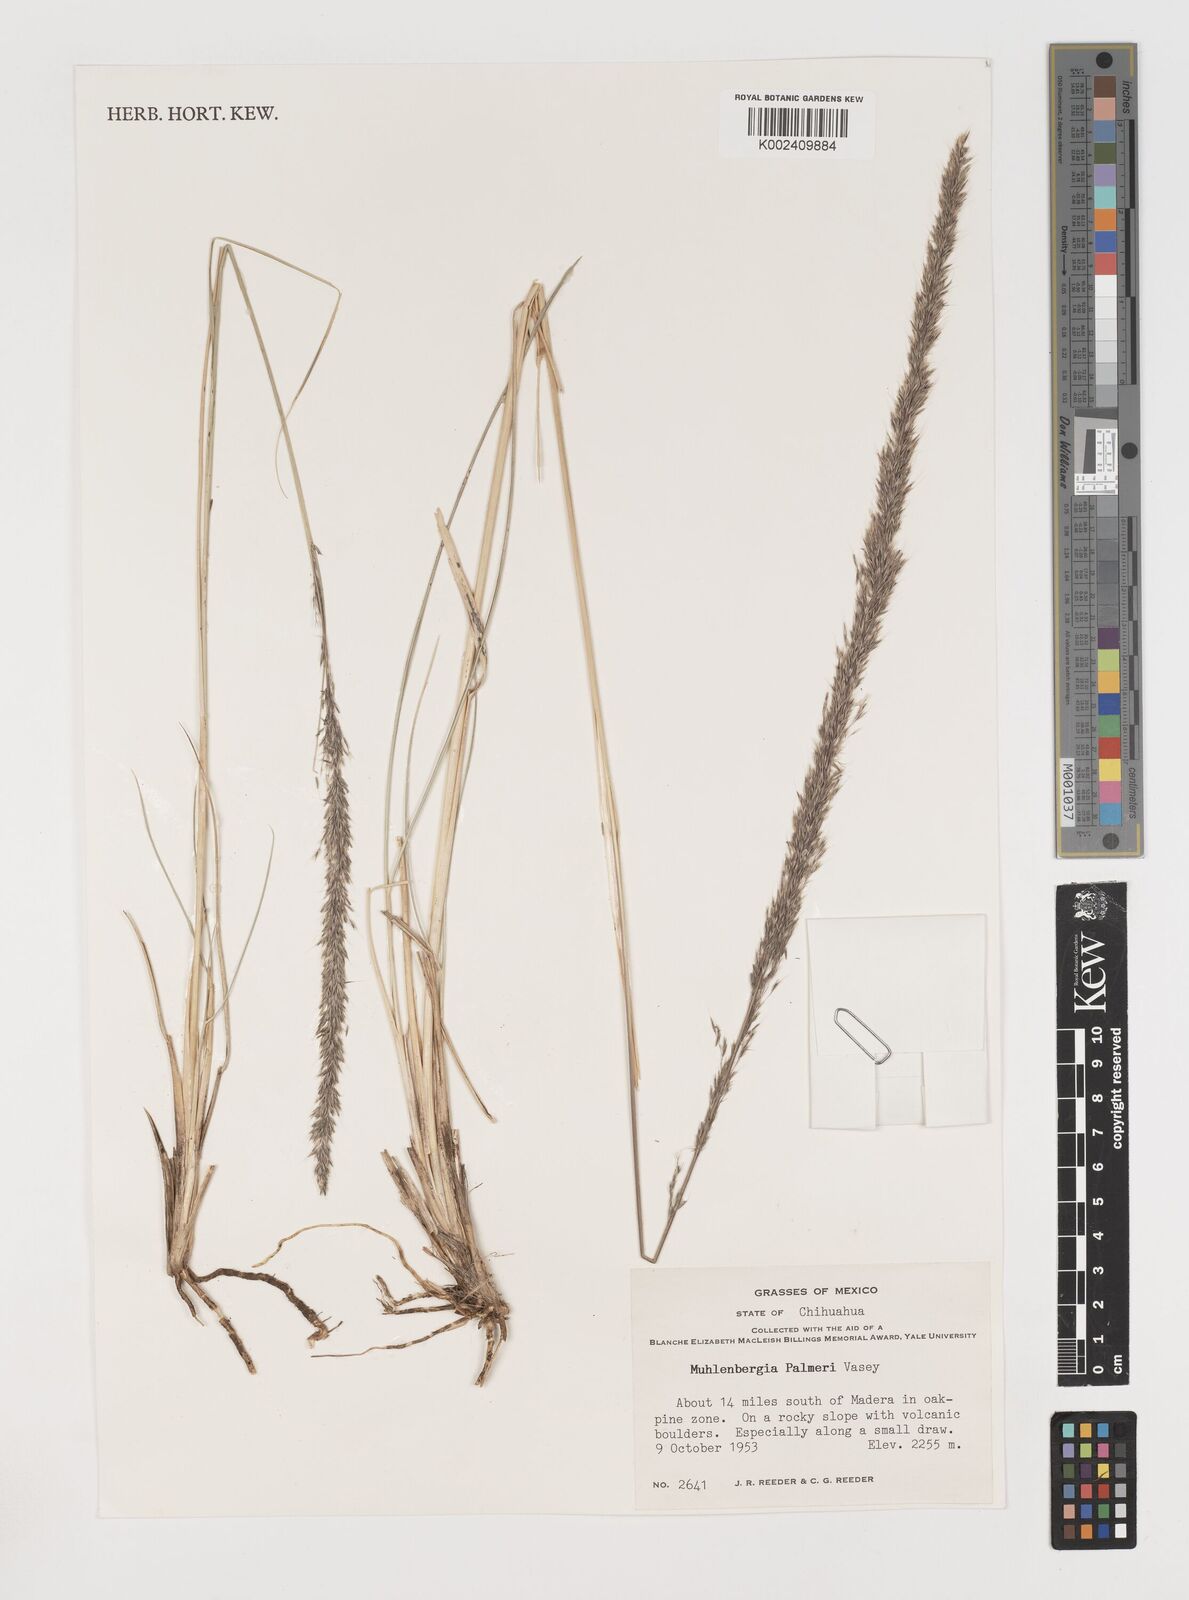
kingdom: Plantae
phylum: Tracheophyta
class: Liliopsida
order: Poales
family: Poaceae
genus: Muhlenbergia
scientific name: Muhlenbergia palmeri
